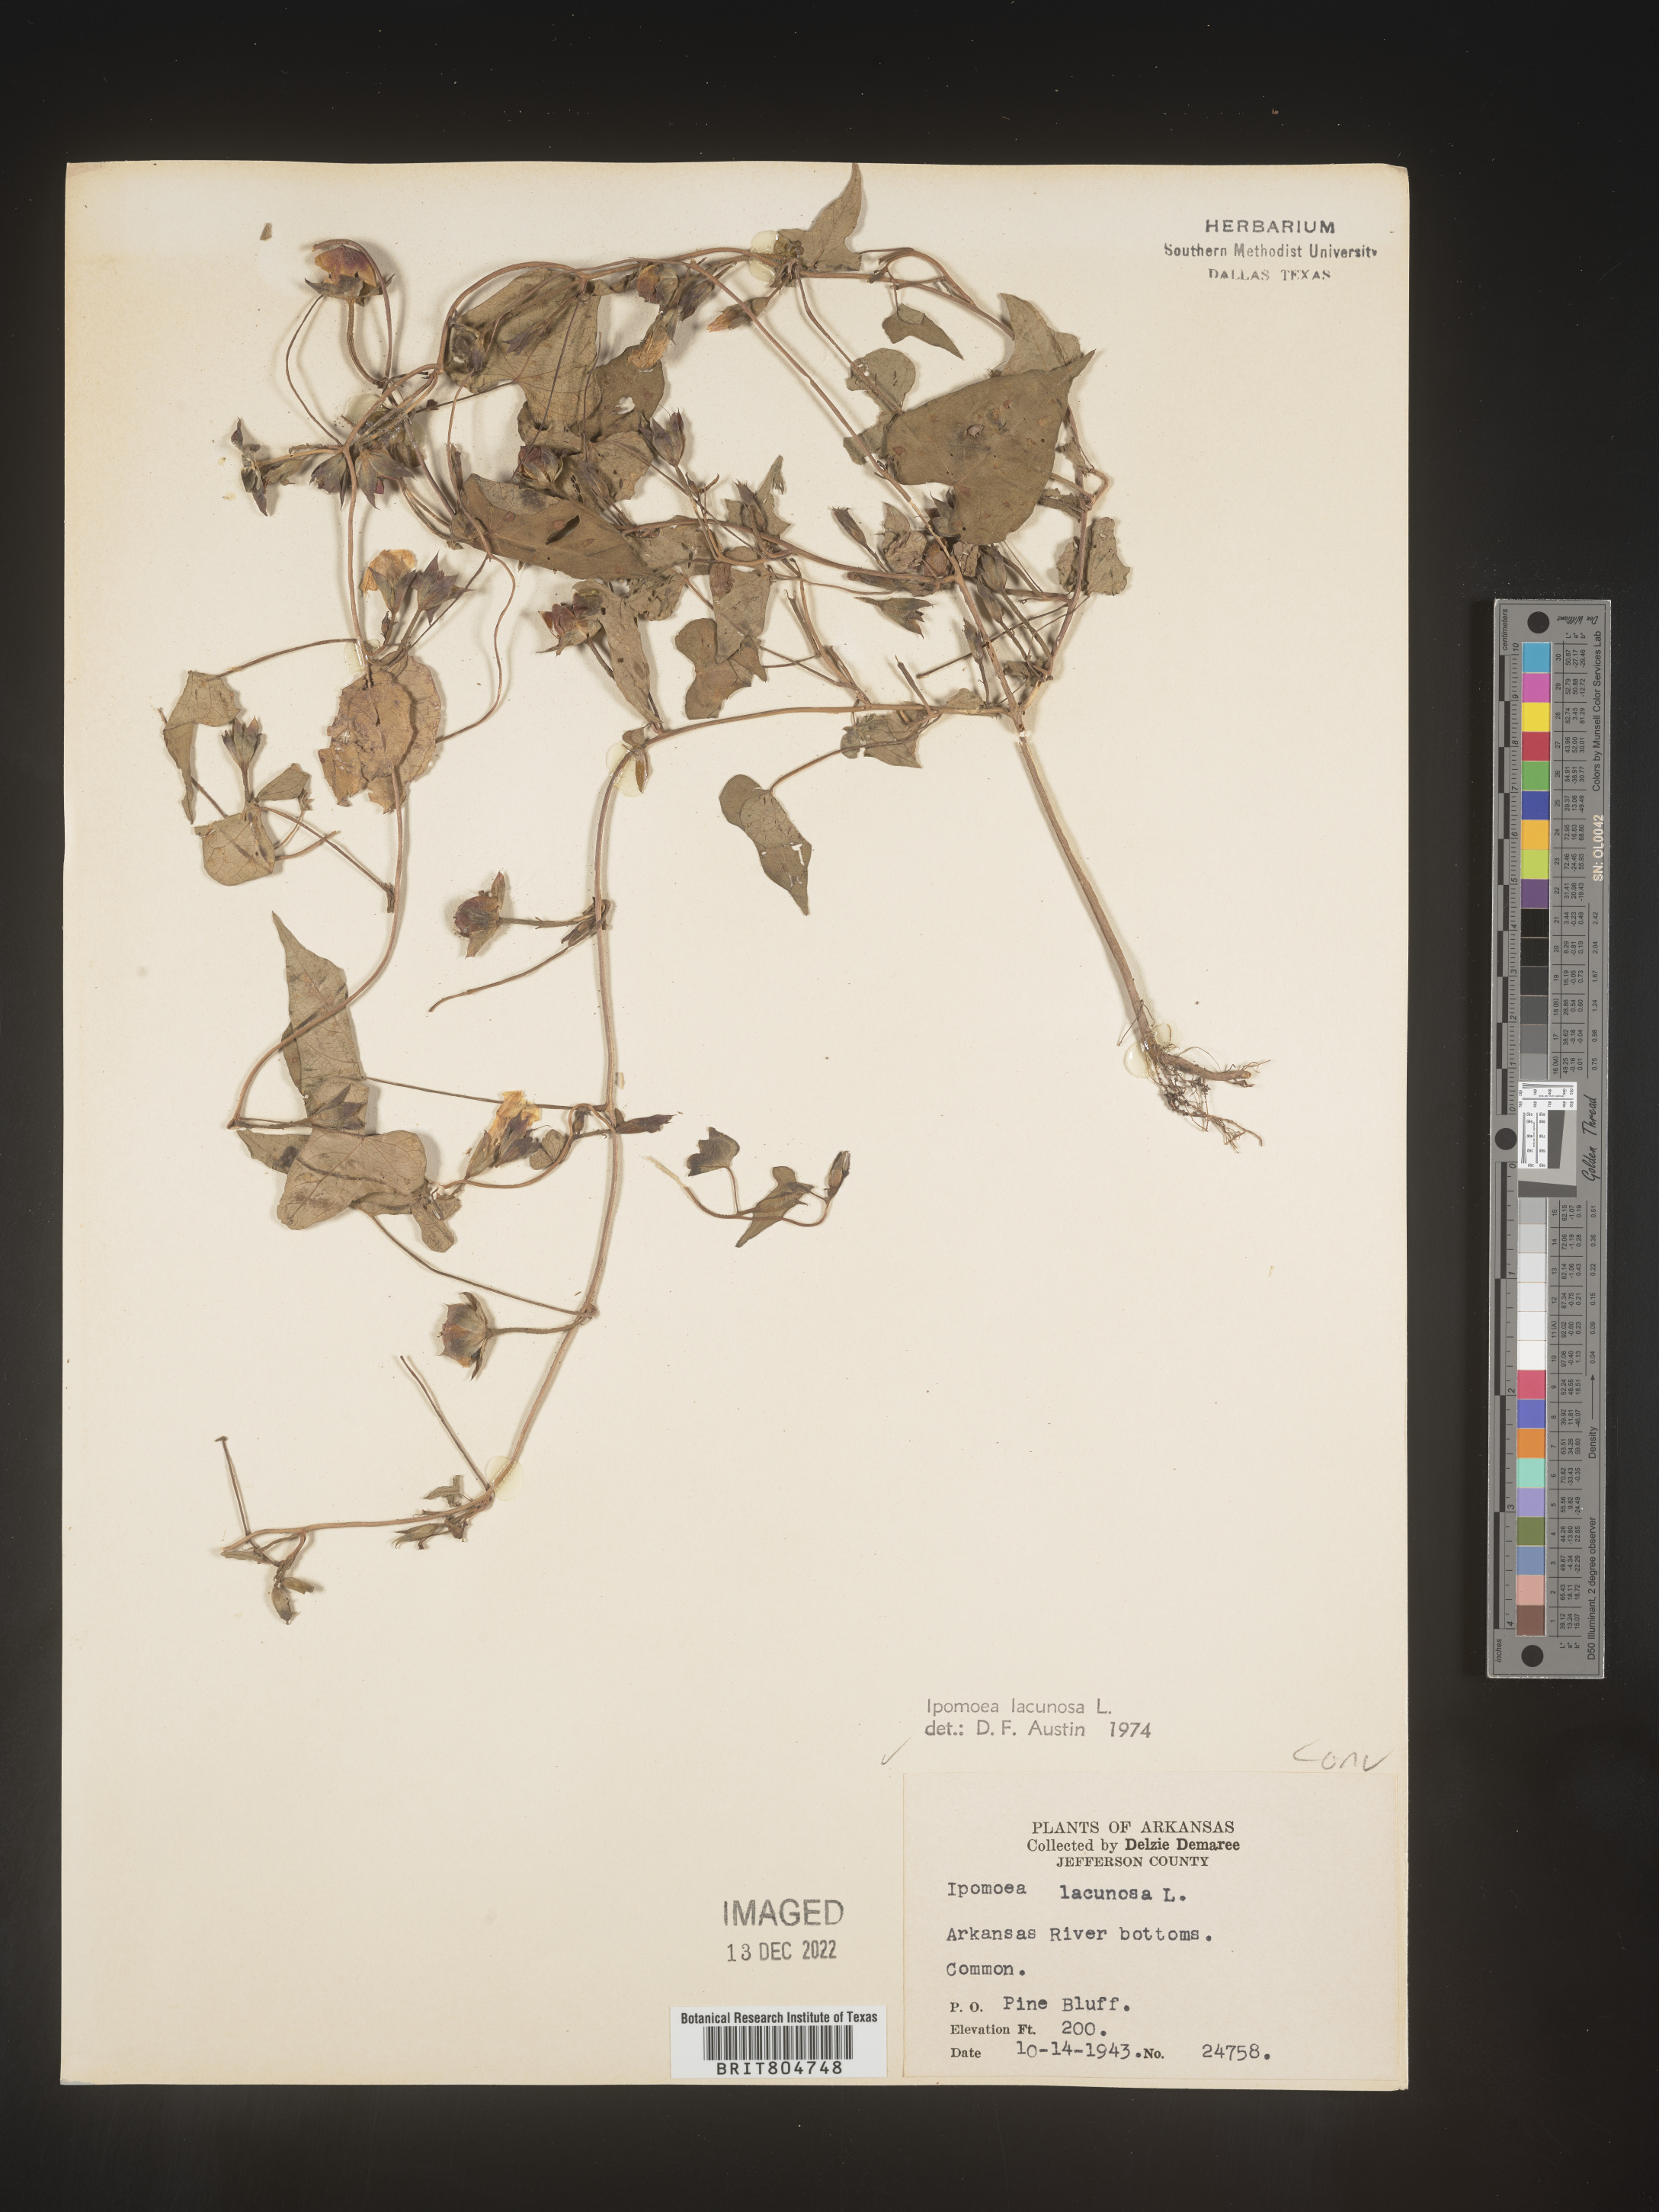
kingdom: Plantae
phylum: Tracheophyta
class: Magnoliopsida
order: Solanales
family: Convolvulaceae
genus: Ipomoea
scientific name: Ipomoea lacunosa
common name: White morning-glory
